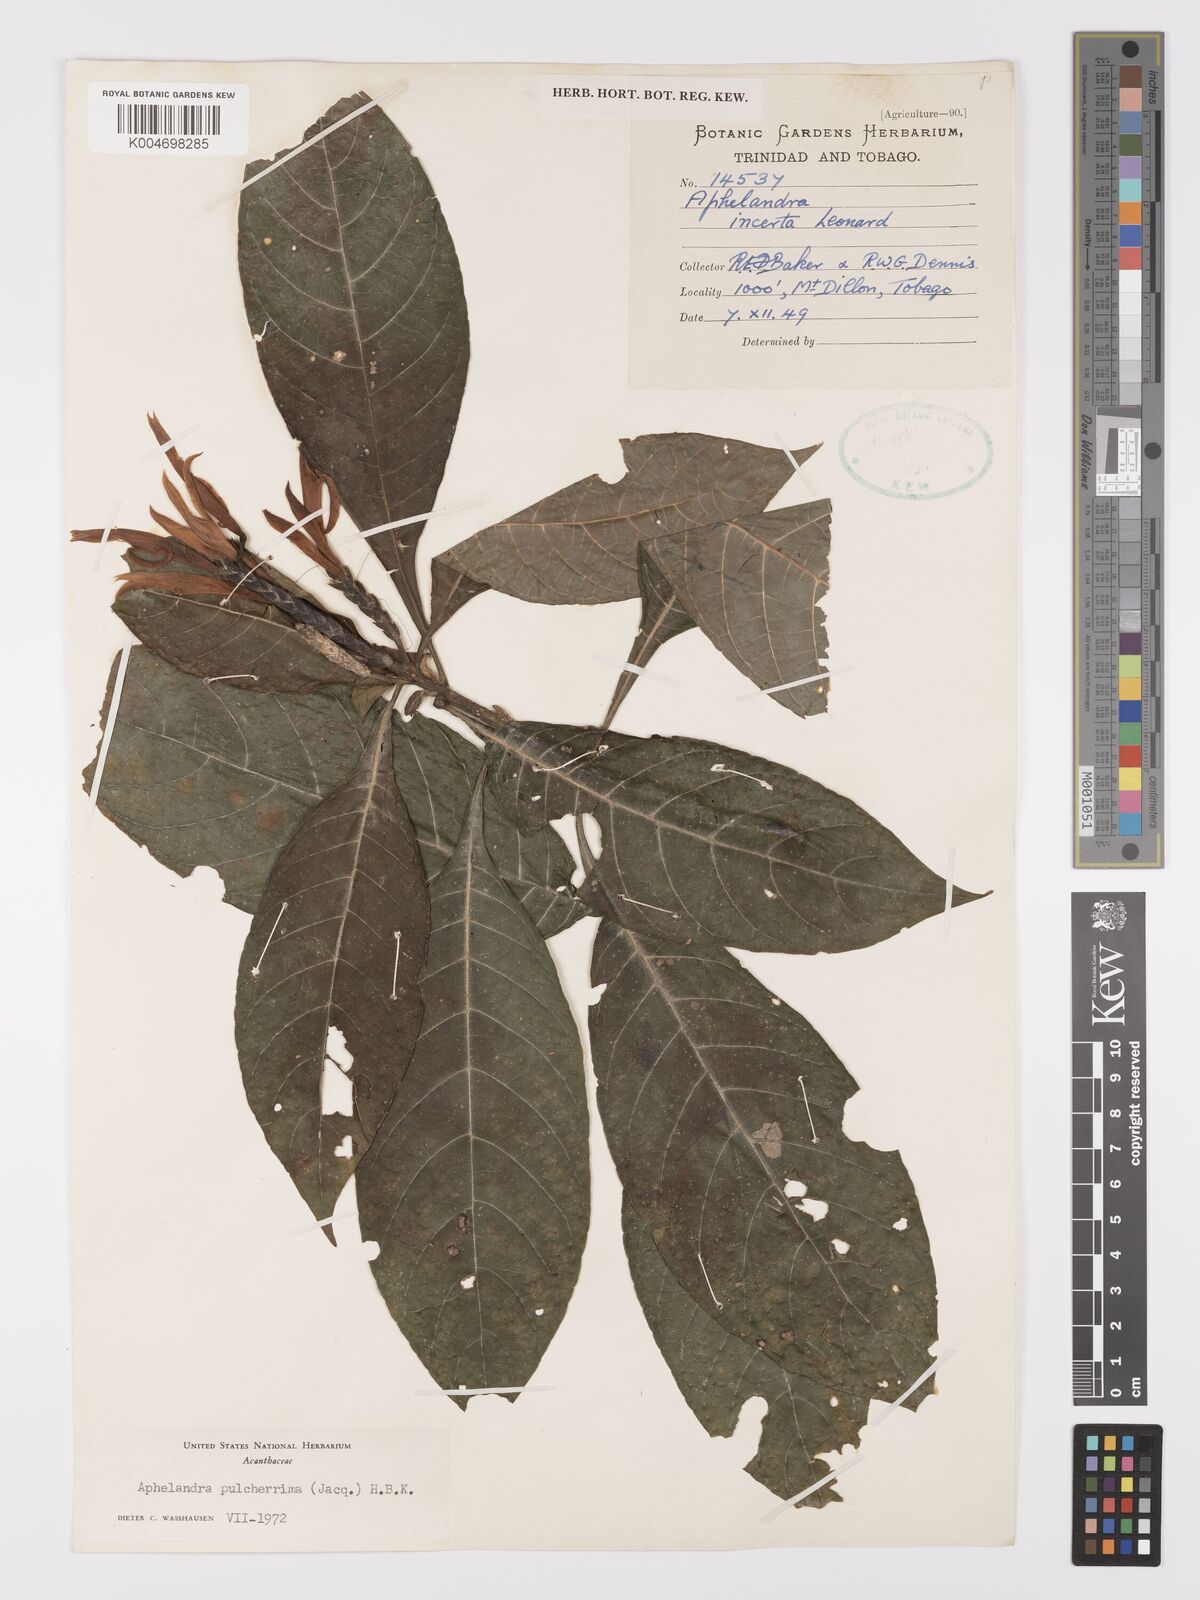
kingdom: Plantae
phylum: Tracheophyta
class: Magnoliopsida
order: Lamiales
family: Acanthaceae
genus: Aphelandra
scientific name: Aphelandra
